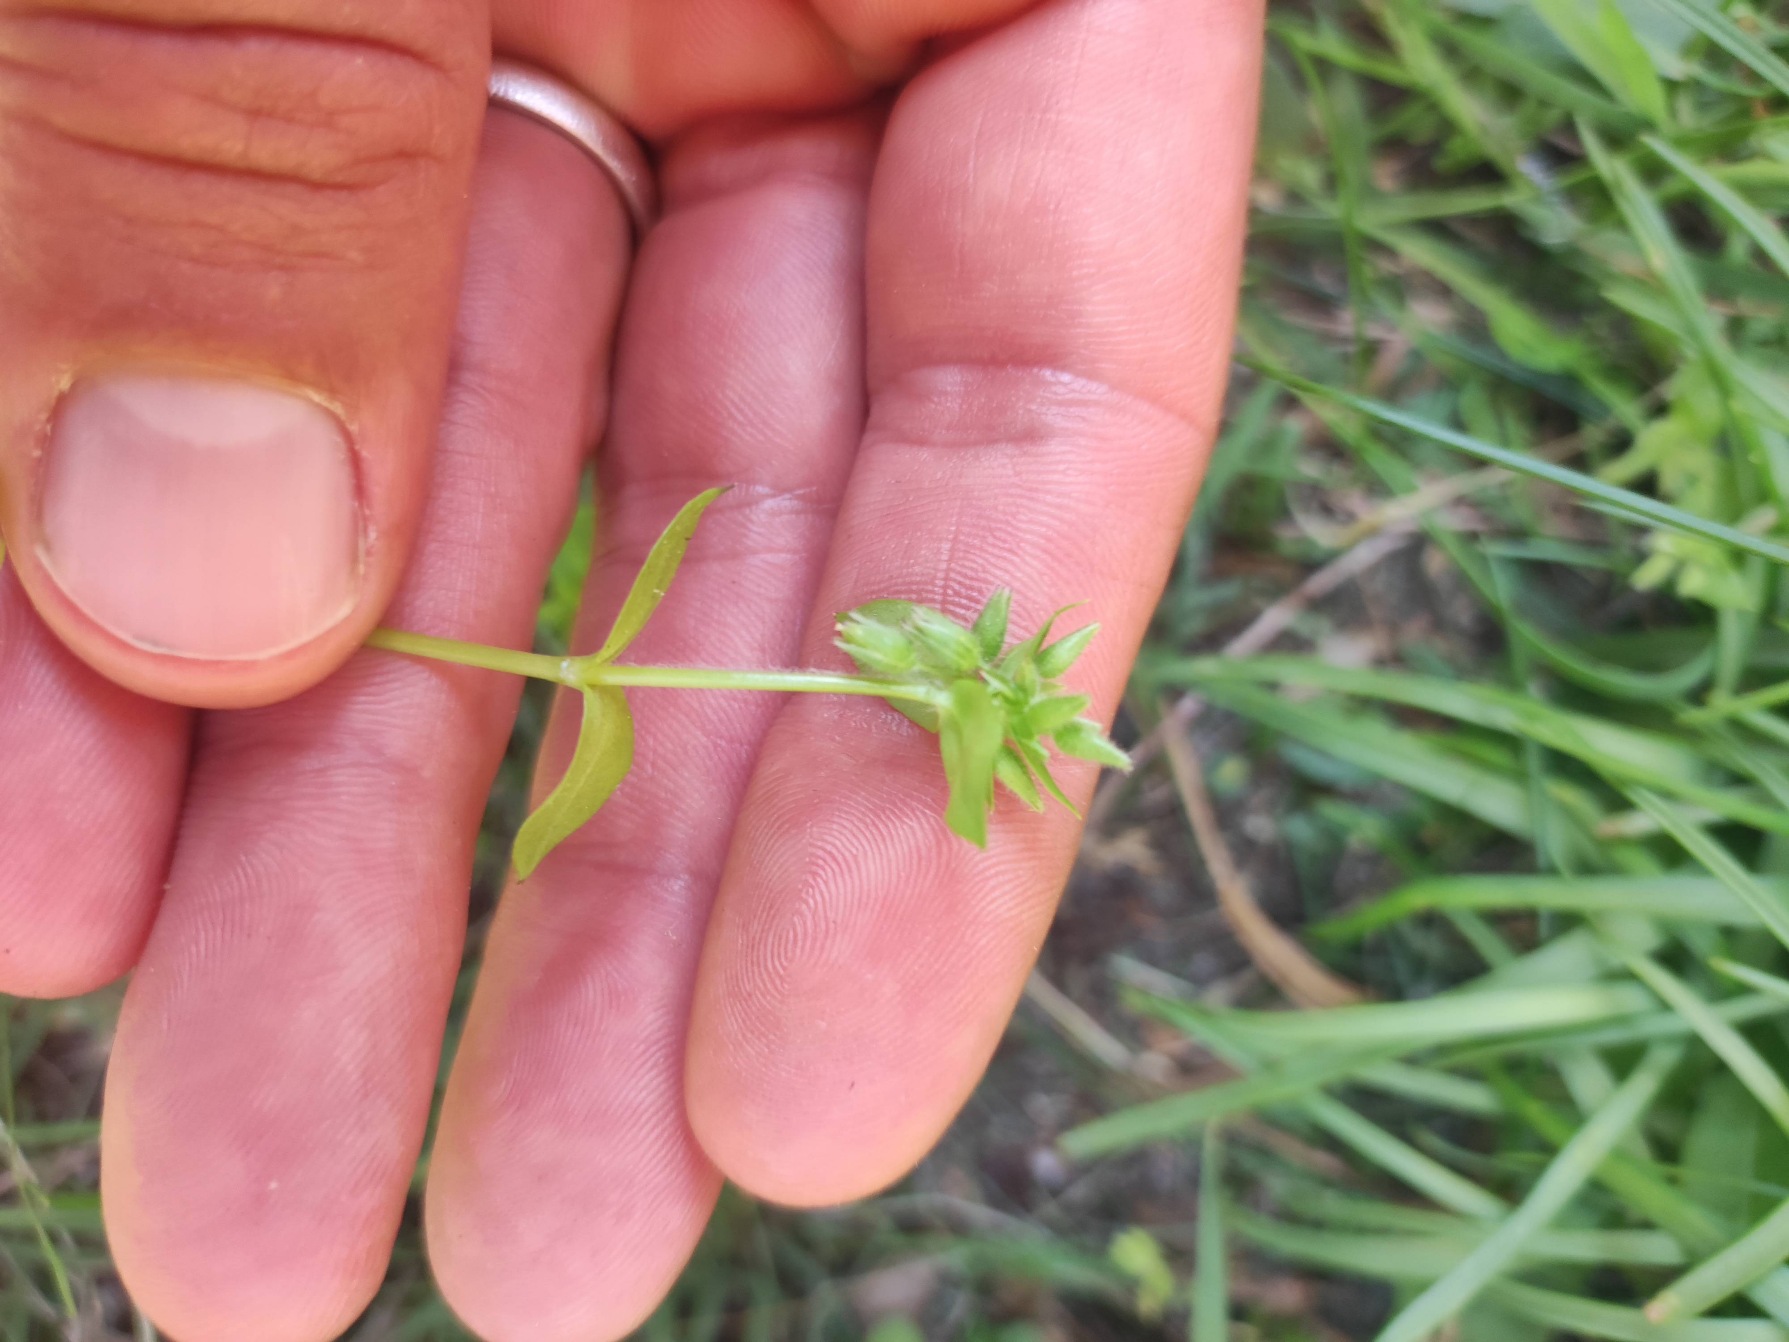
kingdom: Plantae
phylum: Tracheophyta
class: Magnoliopsida
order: Caryophyllales
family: Caryophyllaceae
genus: Stellaria
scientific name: Stellaria media
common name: Almindelig fuglegræs
